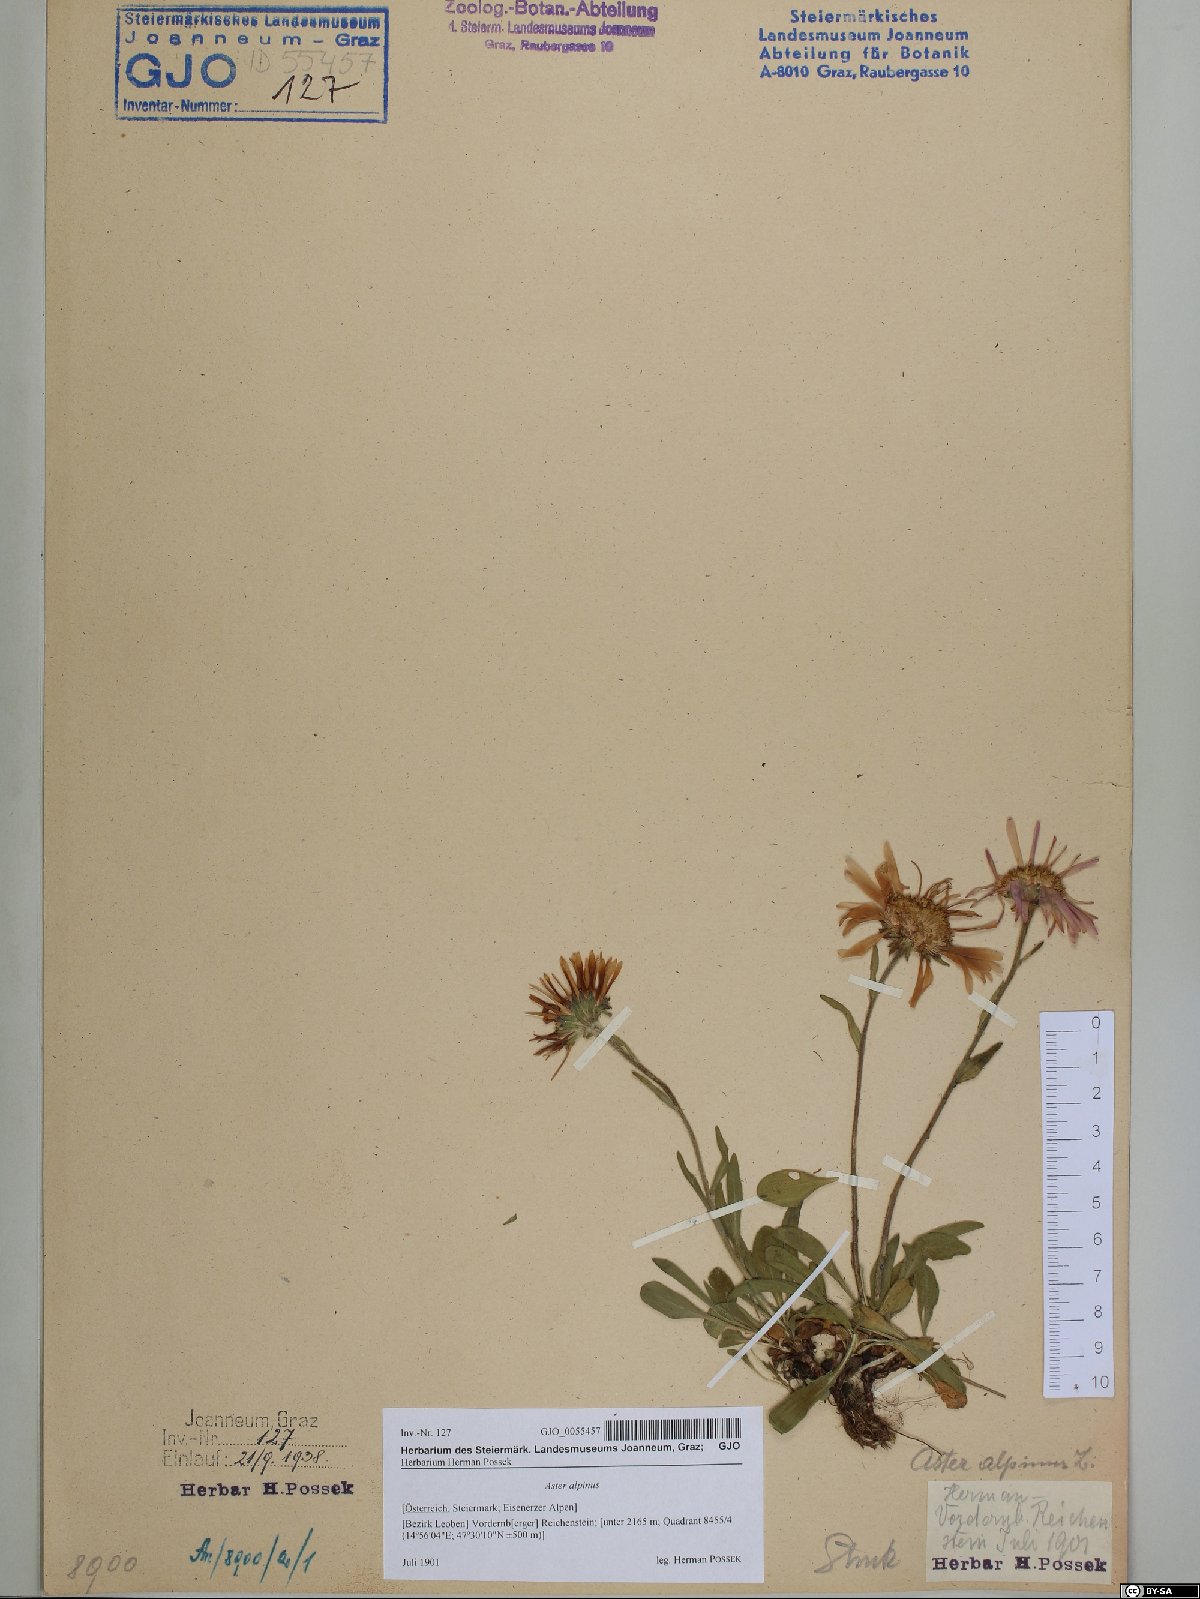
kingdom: Plantae
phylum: Tracheophyta
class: Magnoliopsida
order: Asterales
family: Asteraceae
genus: Aster
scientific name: Aster alpinus
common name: Alpine aster
